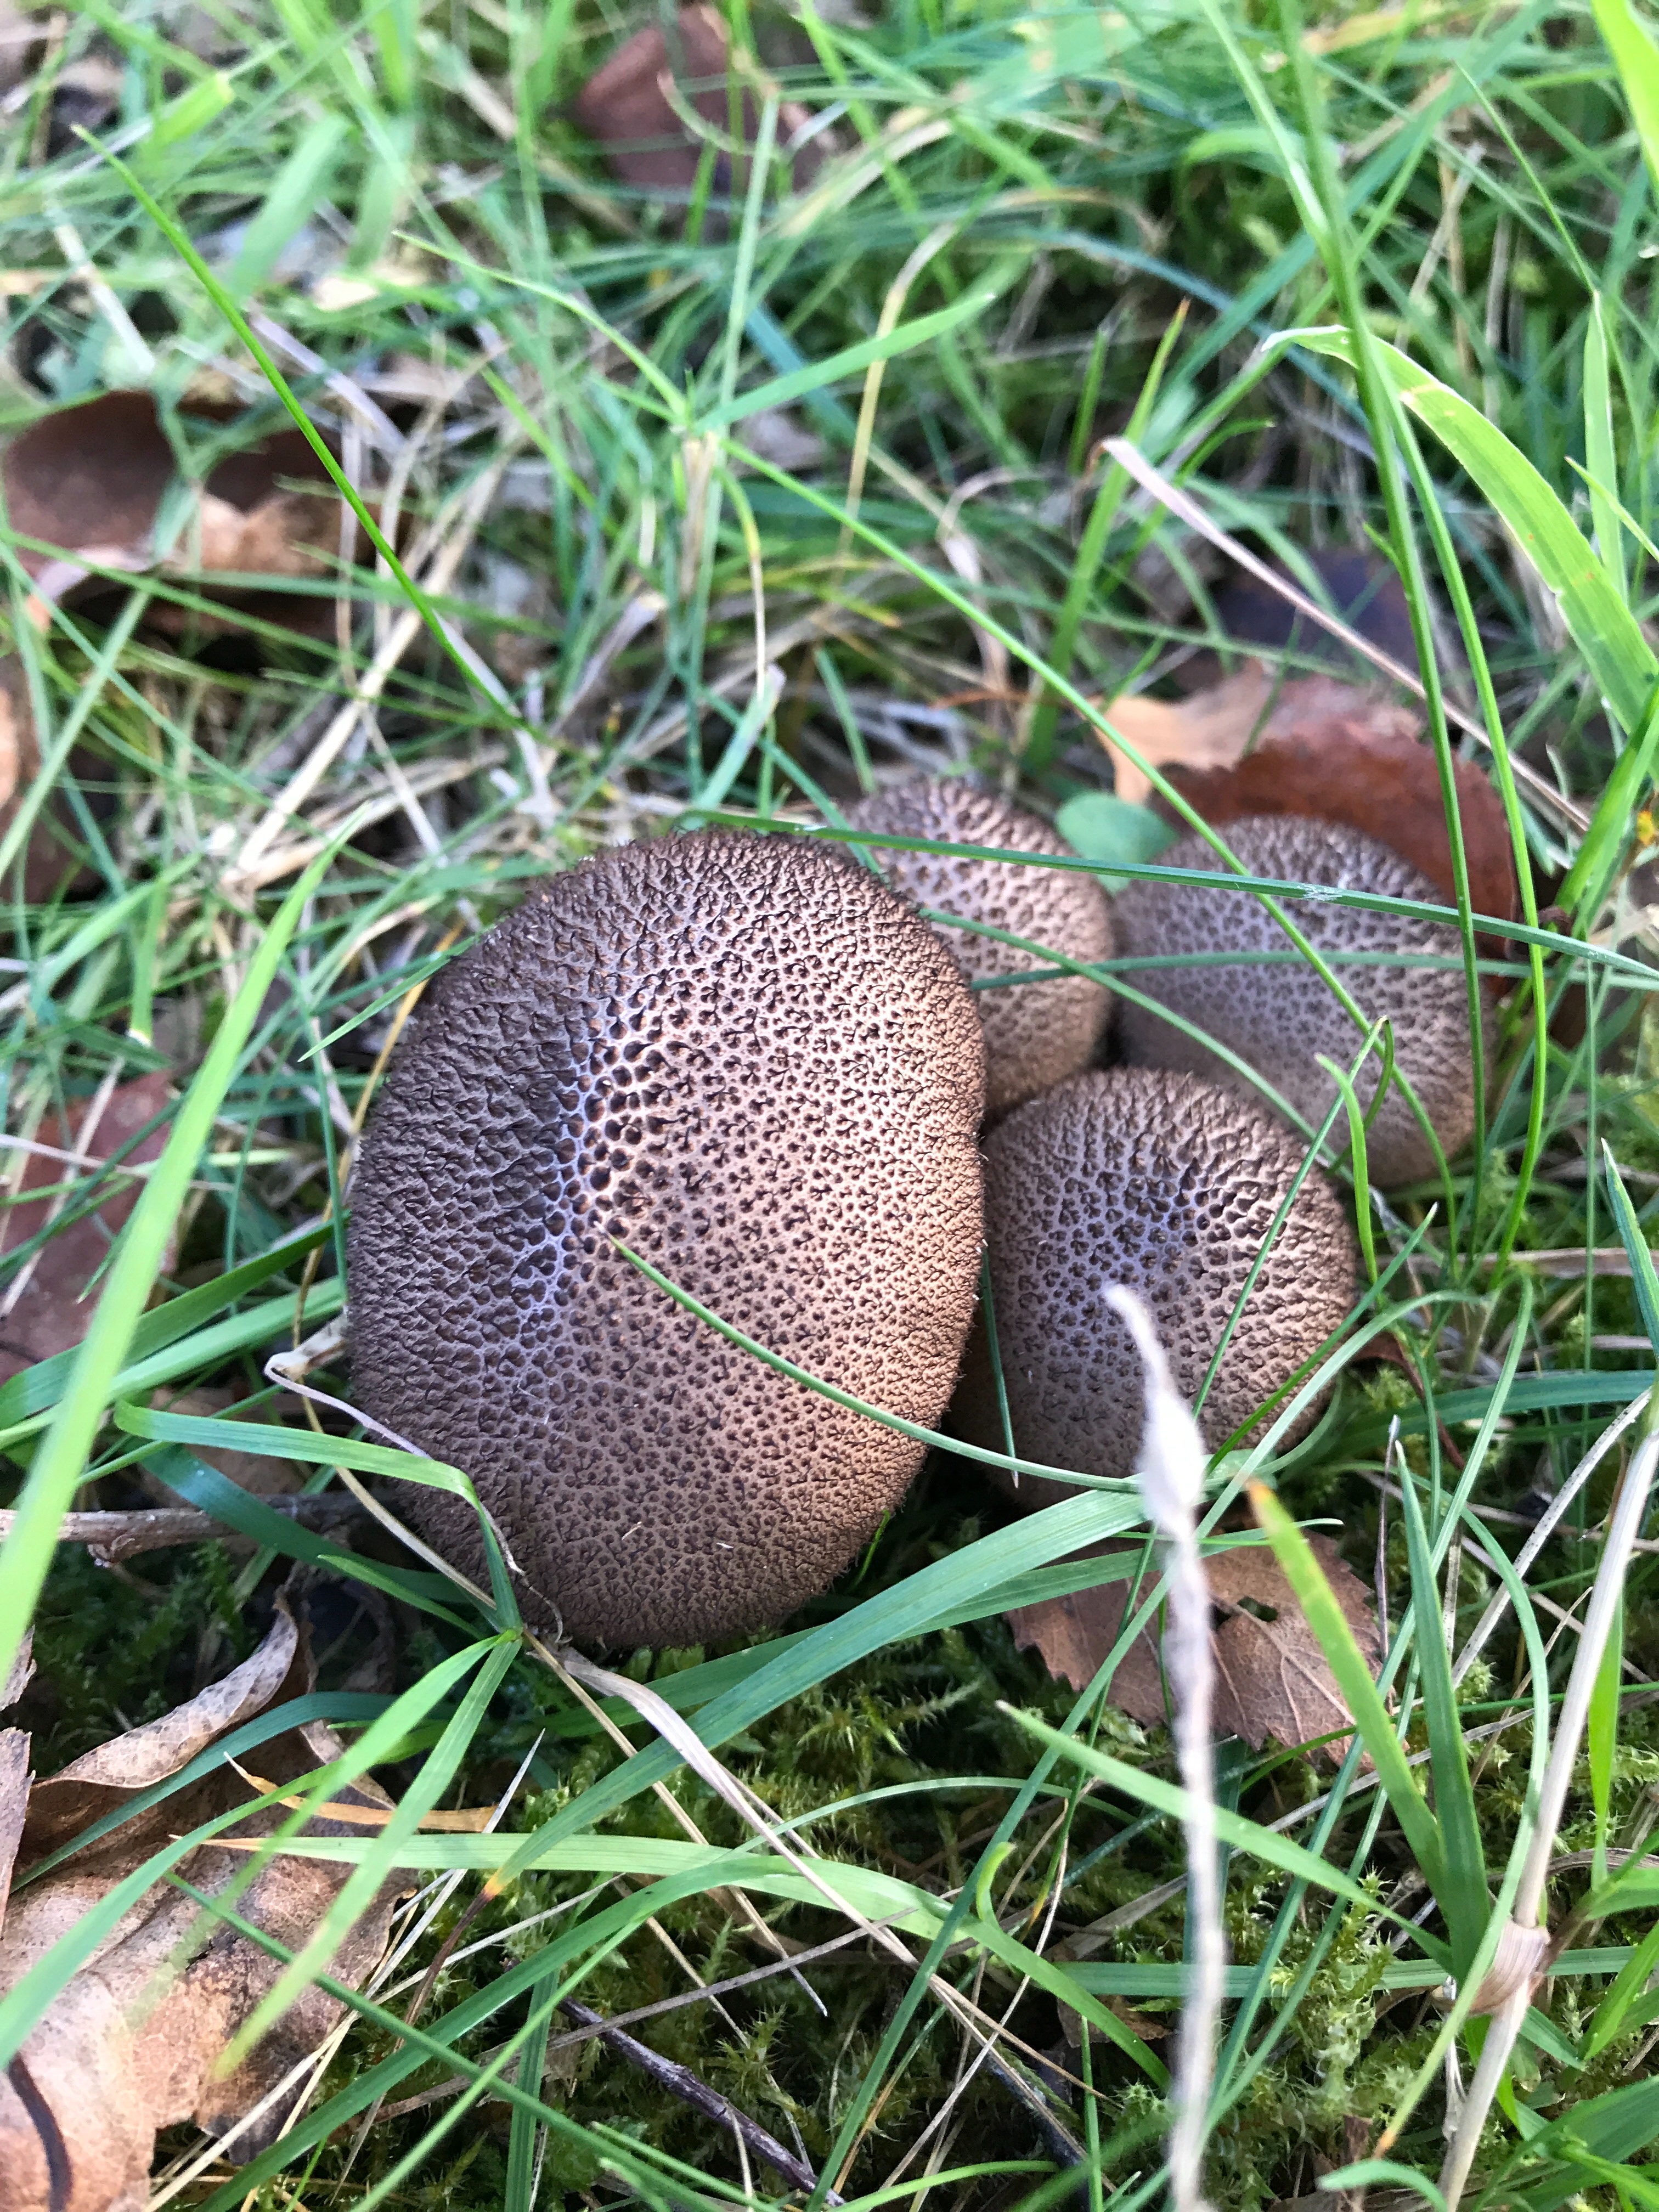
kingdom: Fungi
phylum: Basidiomycota
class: Agaricomycetes
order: Agaricales
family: Lycoperdaceae
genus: Lycoperdon
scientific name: Lycoperdon nigrescens
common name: sortagtig støvbold
